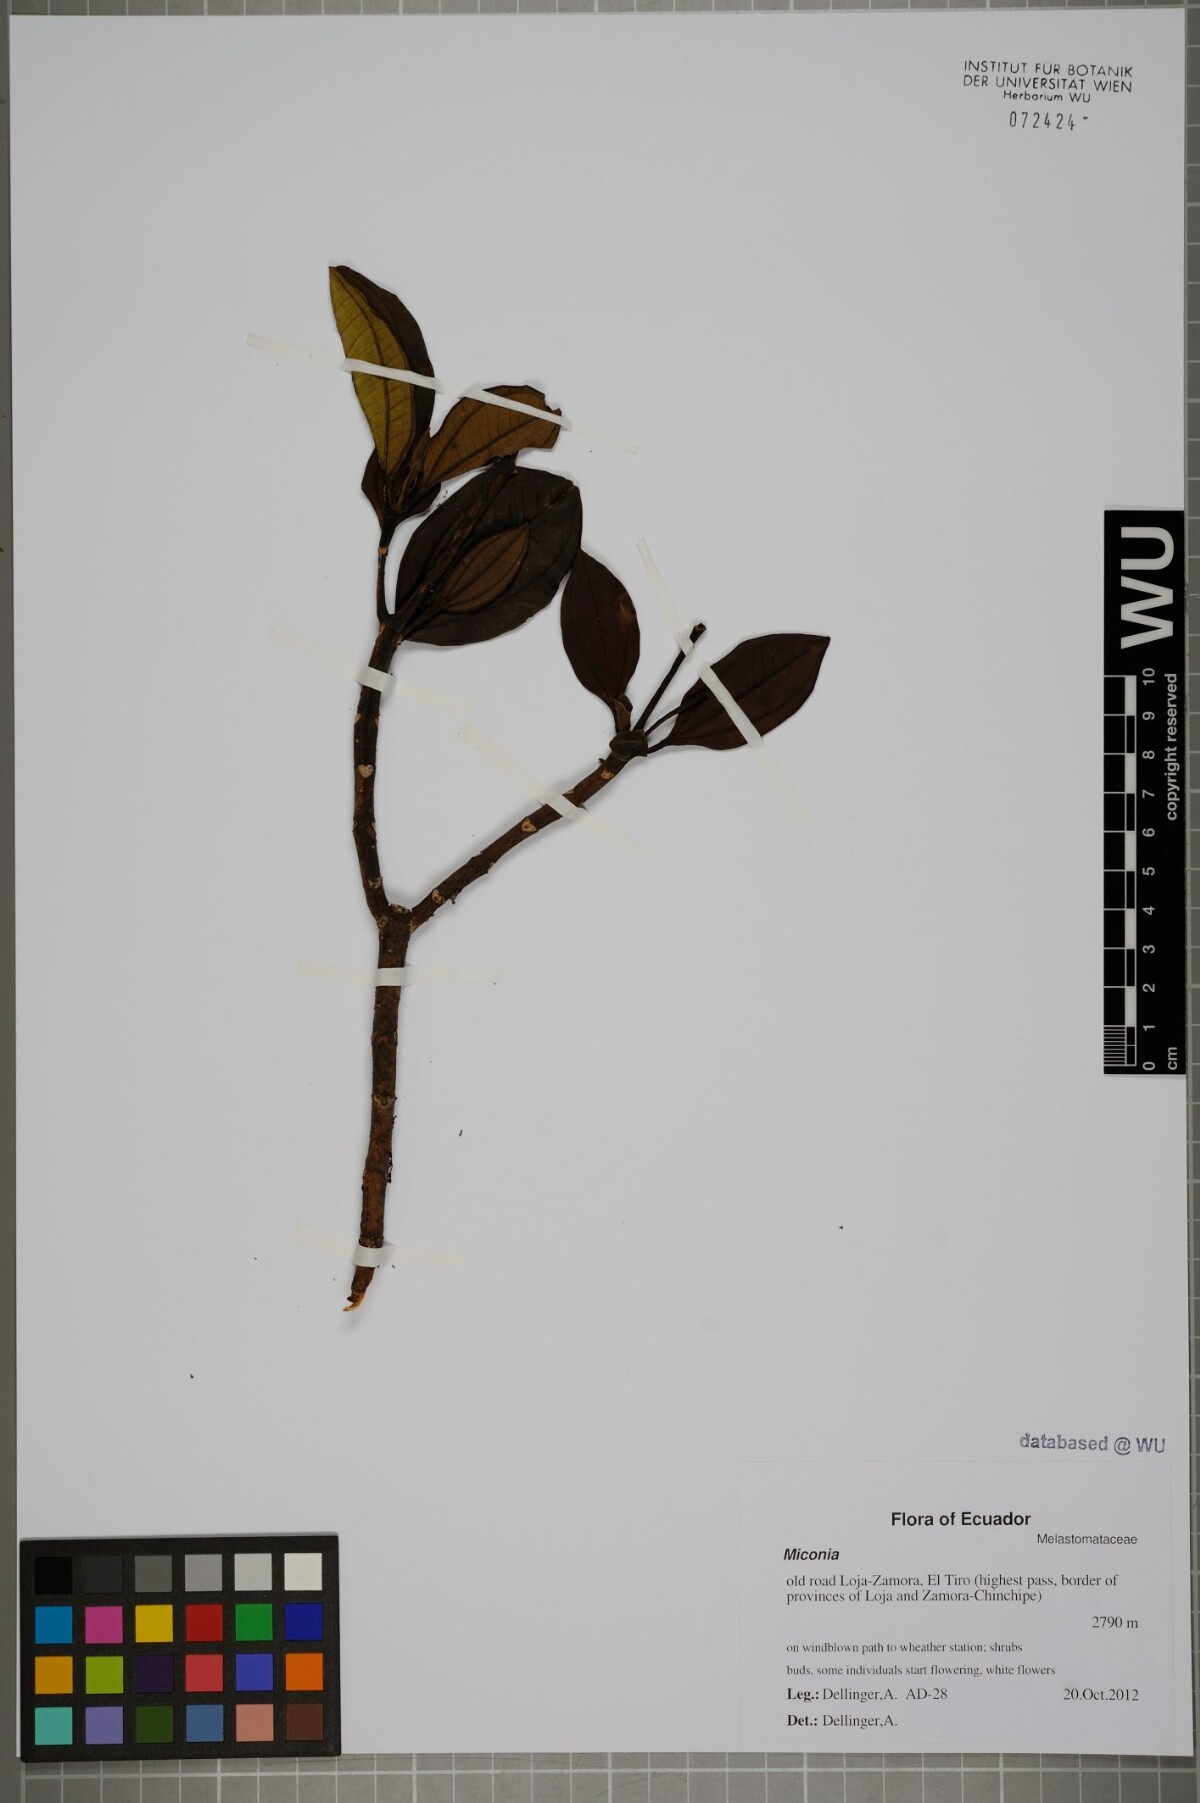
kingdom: Plantae
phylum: Tracheophyta
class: Magnoliopsida
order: Myrtales
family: Melastomataceae
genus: Miconia
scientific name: Miconia
